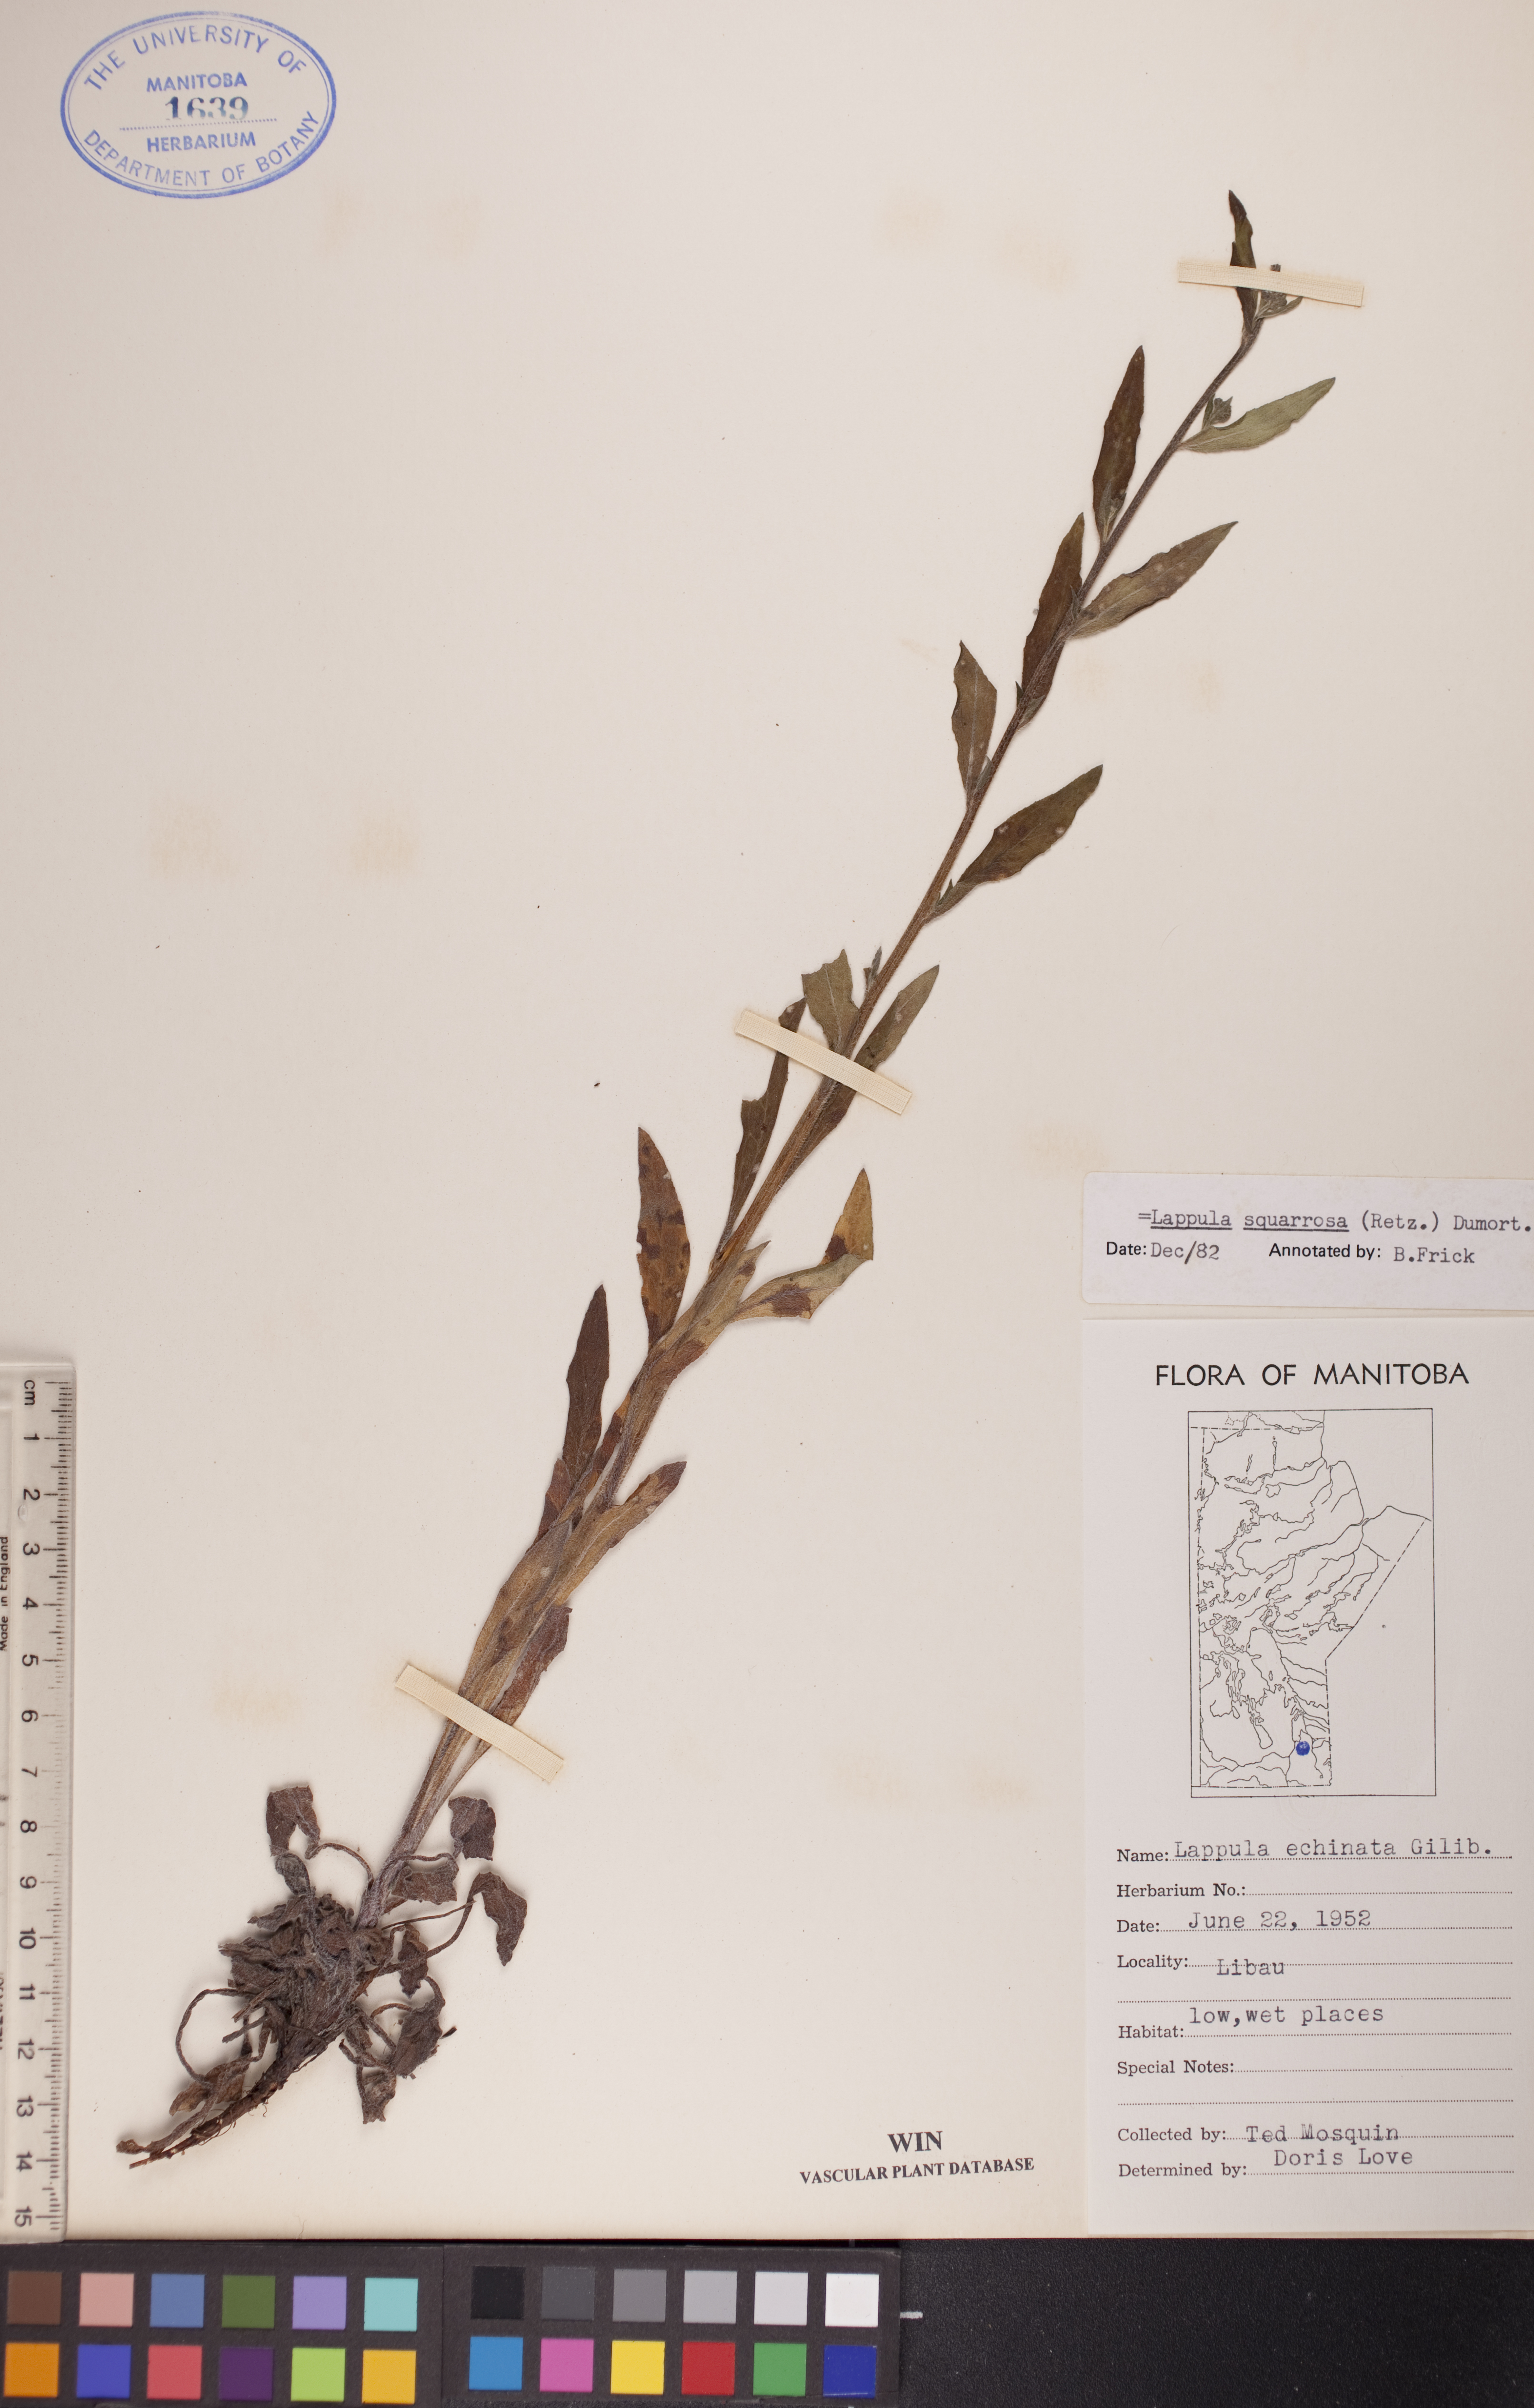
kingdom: Plantae
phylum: Tracheophyta
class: Magnoliopsida
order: Boraginales
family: Boraginaceae
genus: Lappula
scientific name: Lappula squarrosa
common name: European stickseed
